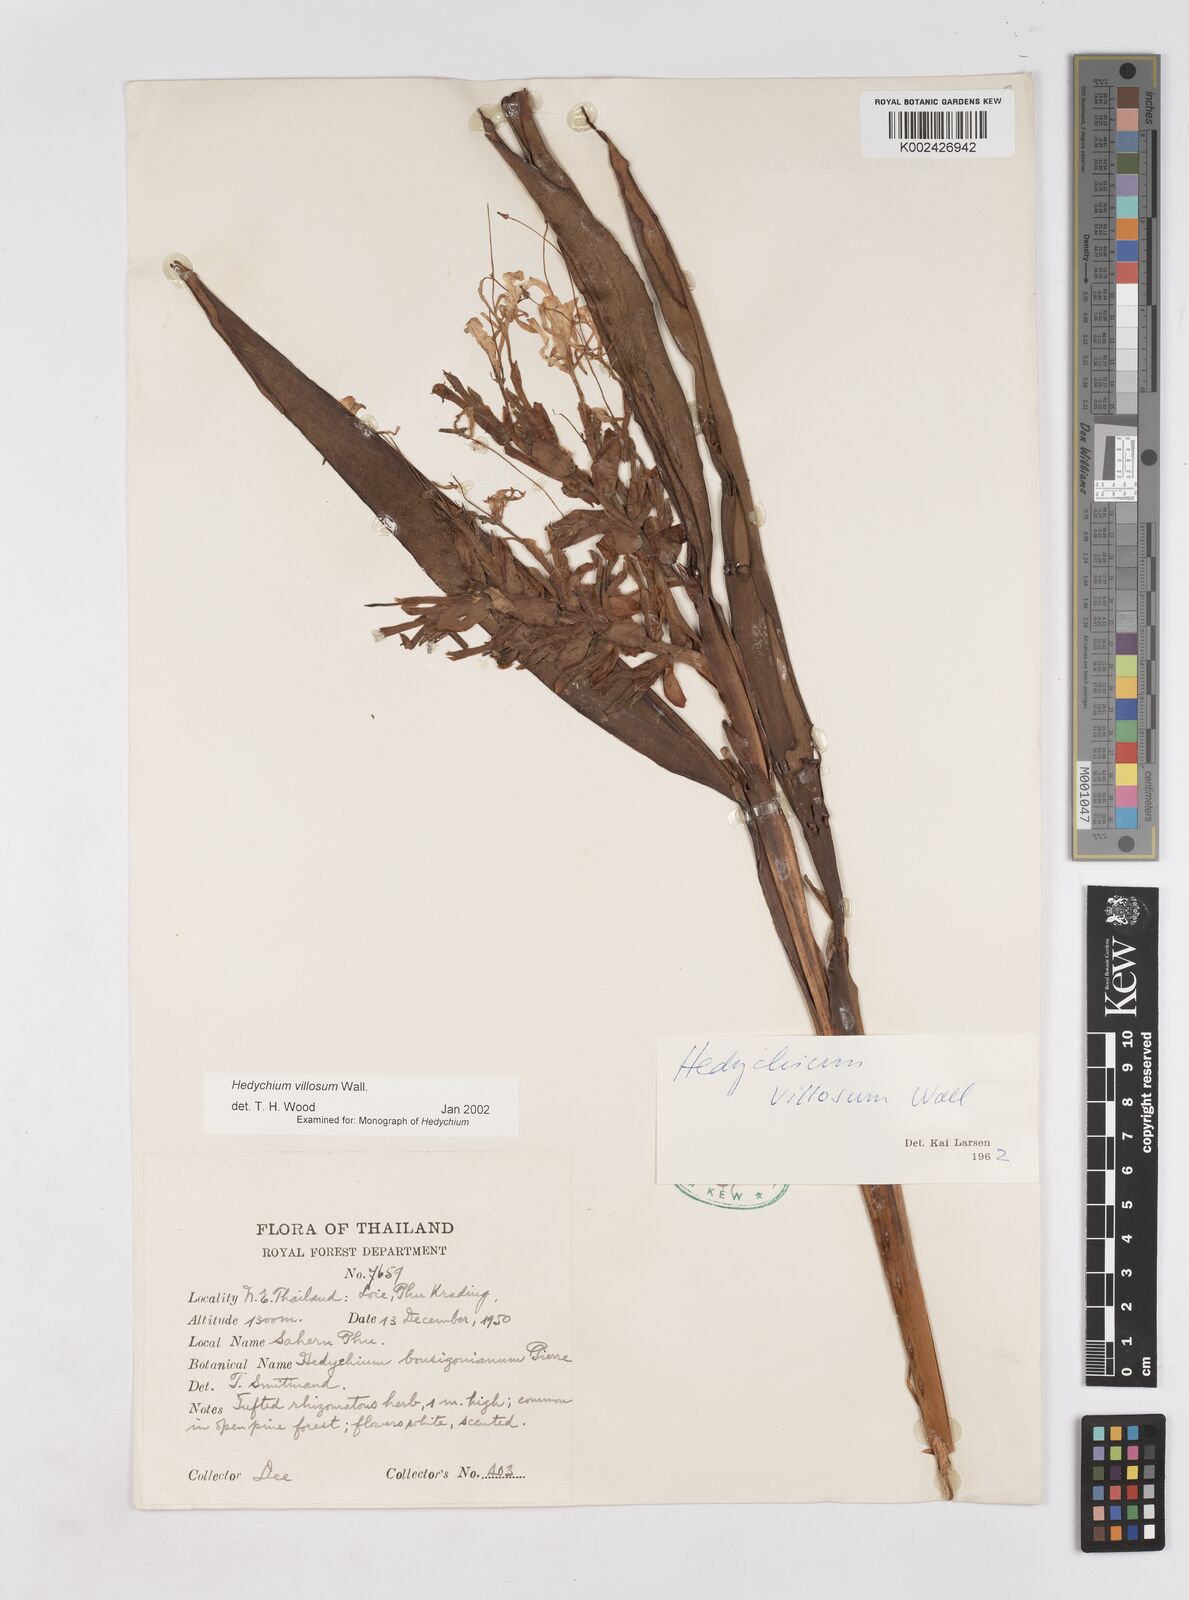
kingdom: Plantae
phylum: Tracheophyta
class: Liliopsida
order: Zingiberales
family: Zingiberaceae
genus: Hedychium
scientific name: Hedychium villosum
